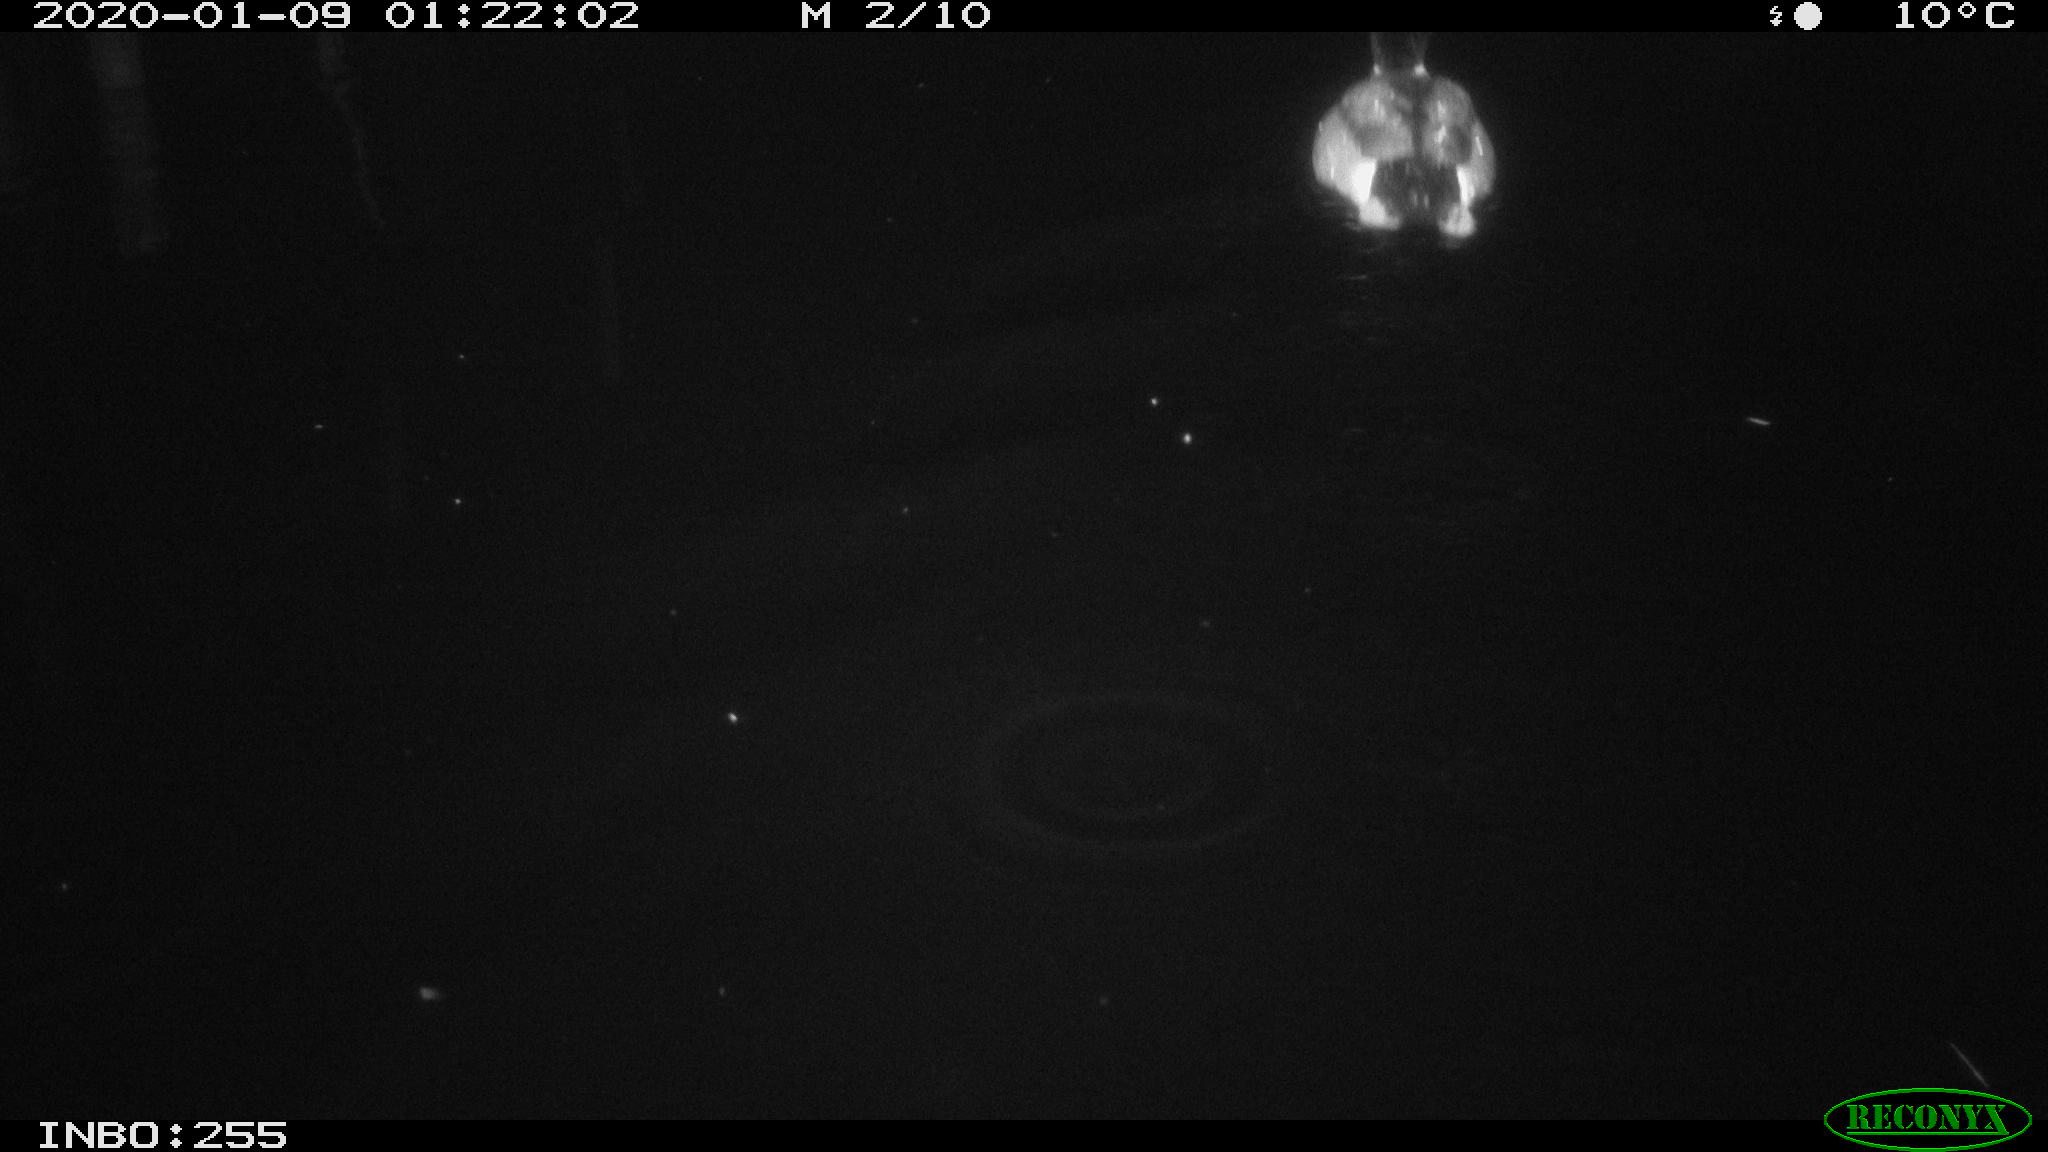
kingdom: Animalia
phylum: Chordata
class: Aves
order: Anseriformes
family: Anatidae
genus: Anas
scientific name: Anas platyrhynchos
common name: Mallard
